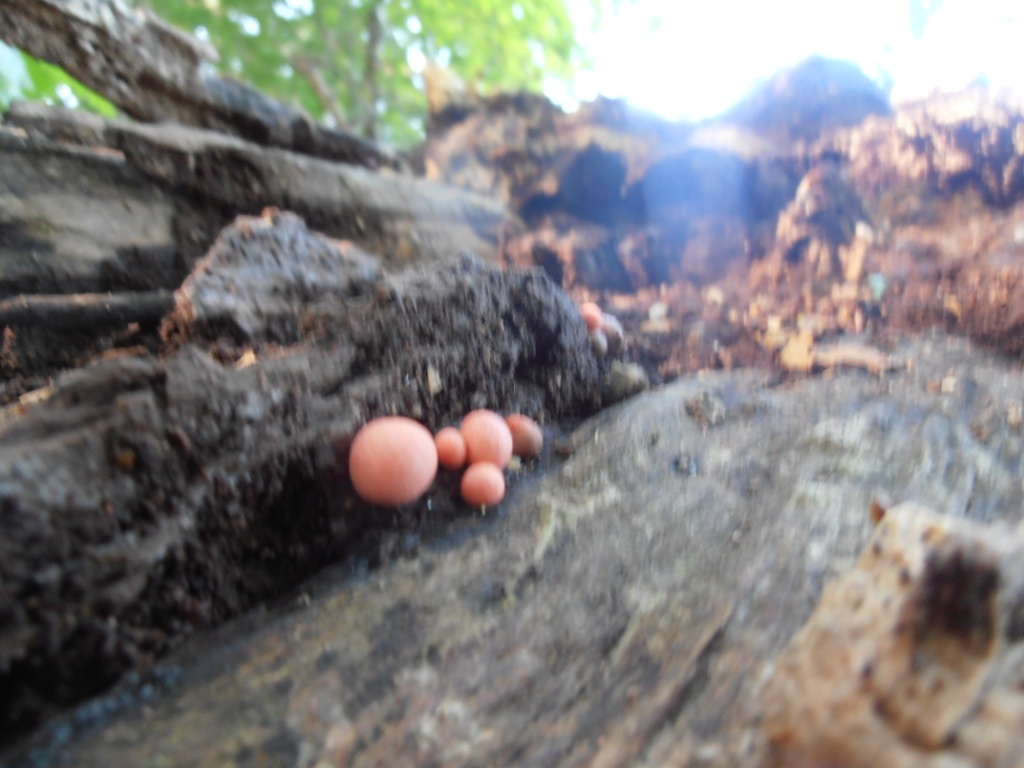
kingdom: Protozoa
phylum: Mycetozoa
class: Myxomycetes
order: Cribrariales
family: Tubiferaceae
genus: Lycogala
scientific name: Lycogala epidendrum
